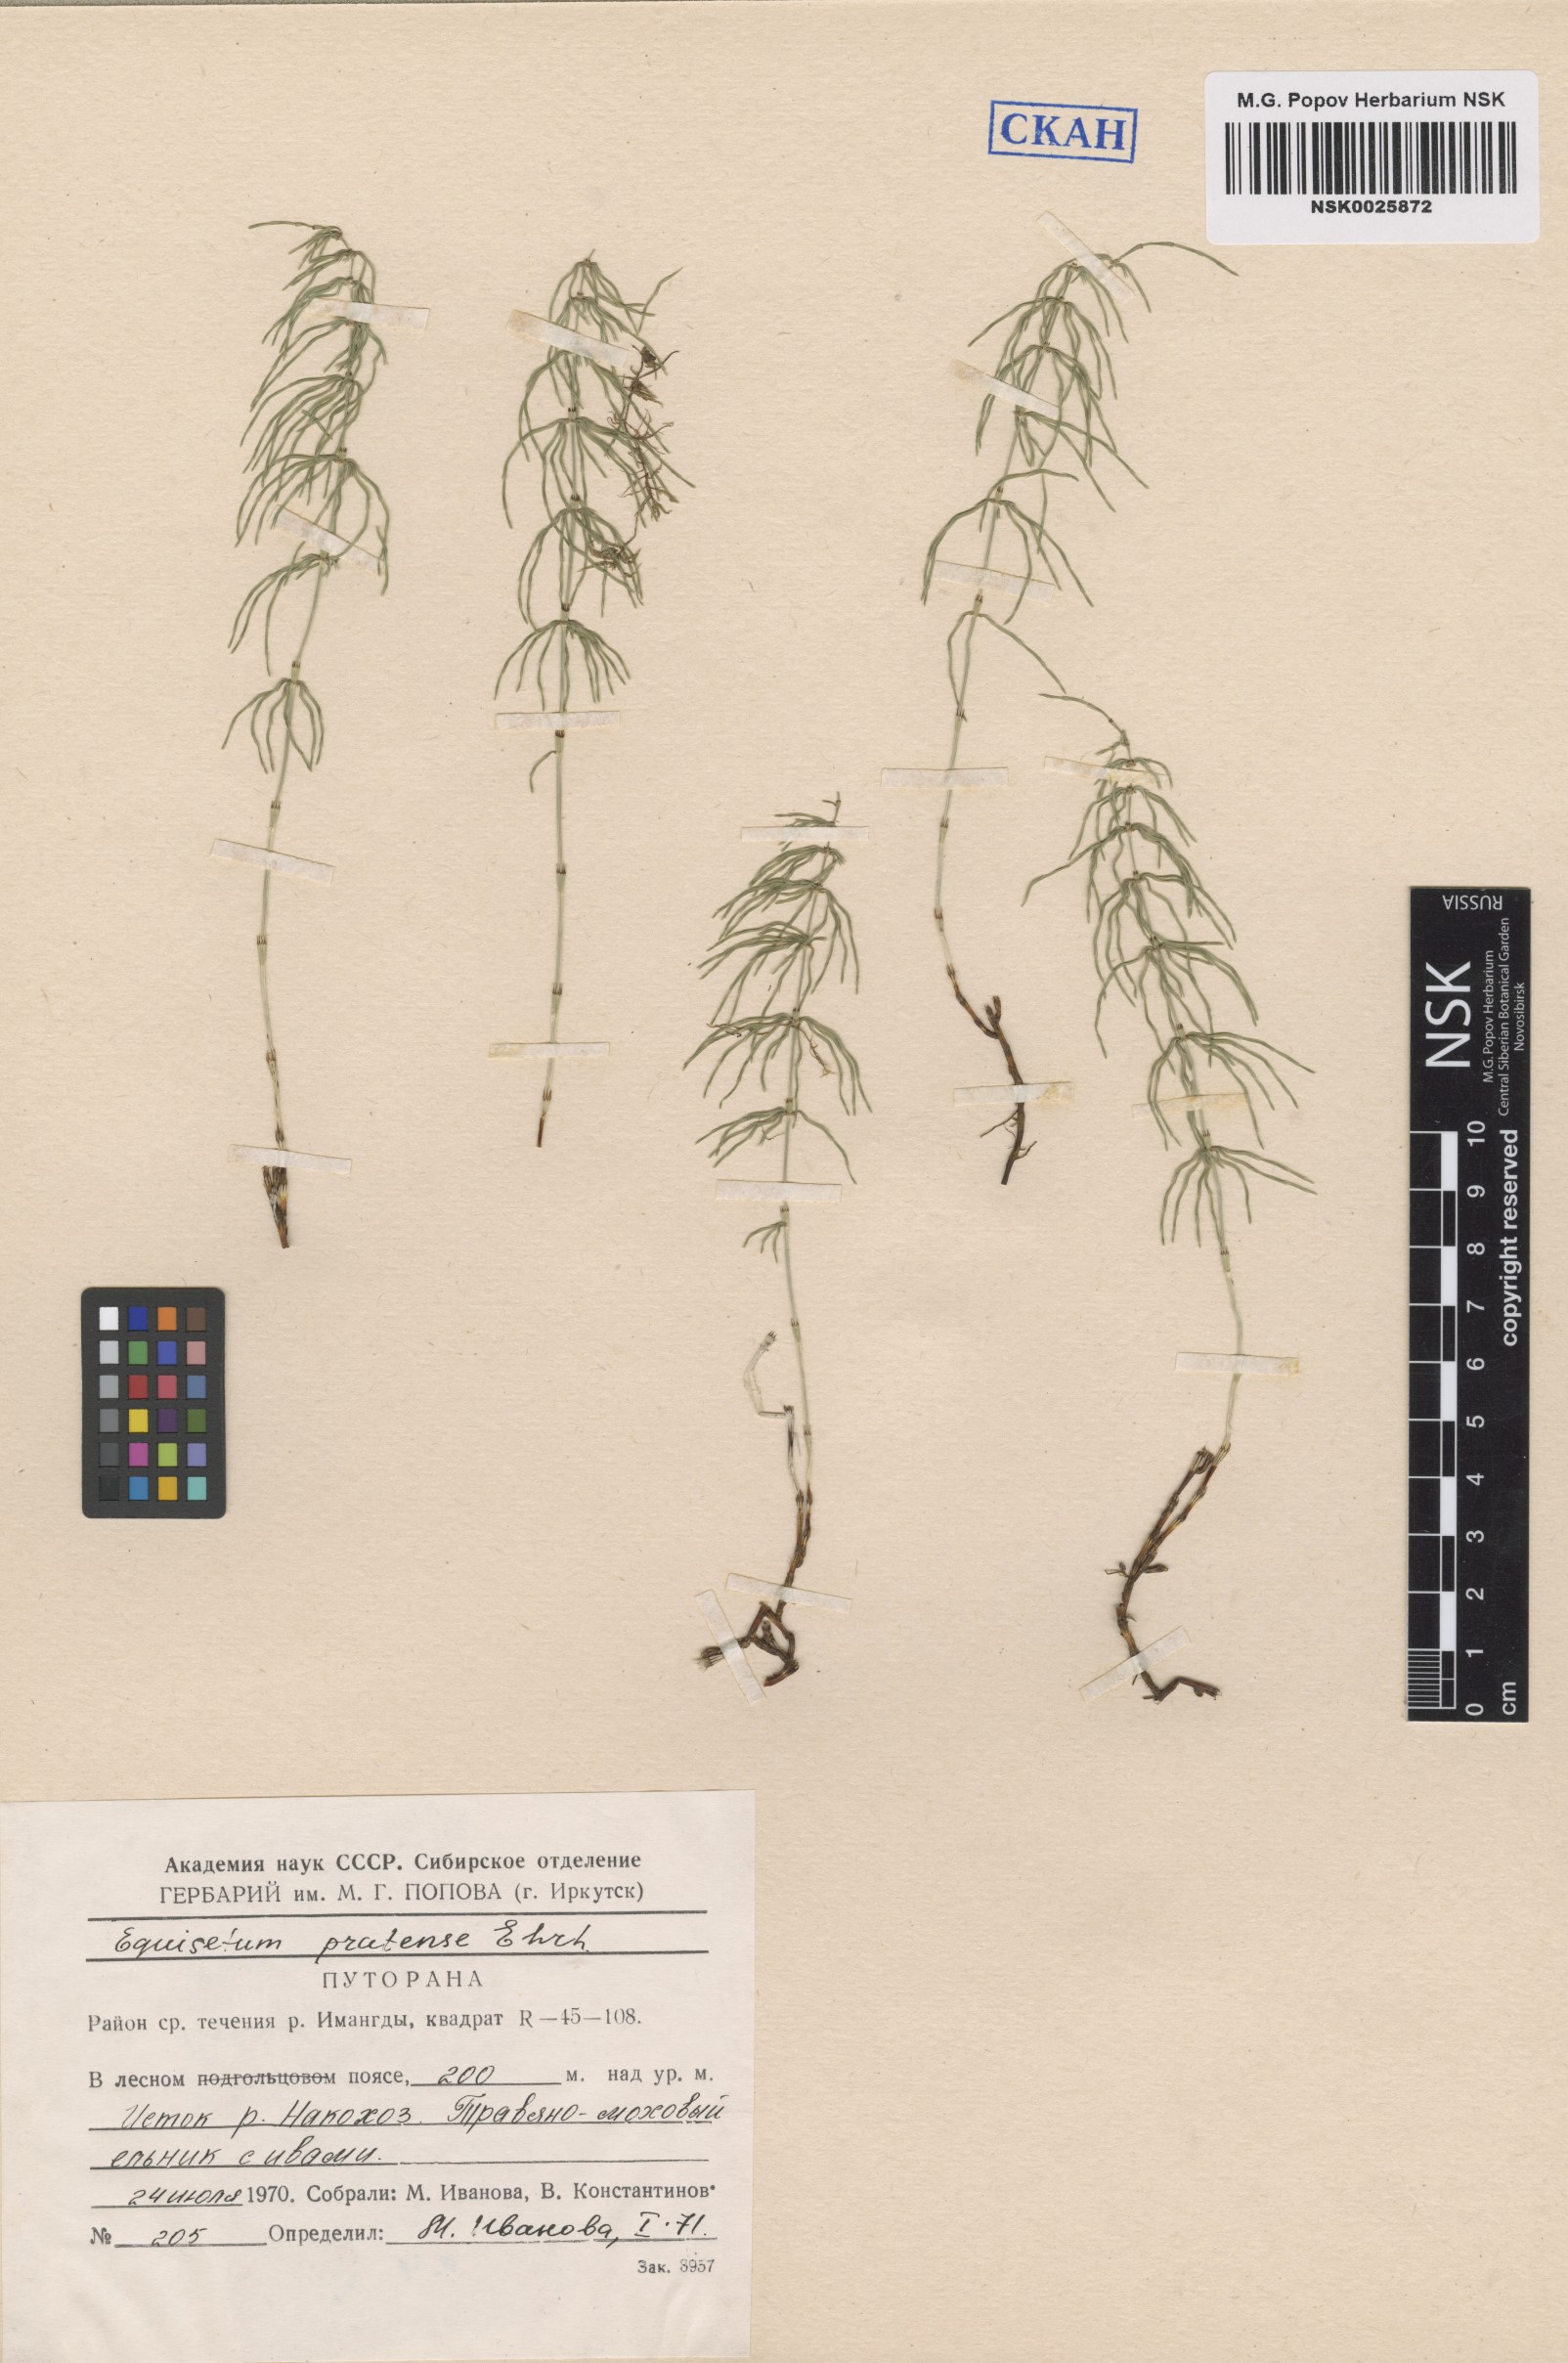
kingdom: Plantae
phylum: Tracheophyta
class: Polypodiopsida
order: Equisetales
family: Equisetaceae
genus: Equisetum
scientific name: Equisetum pratense
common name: Meadow horsetail
